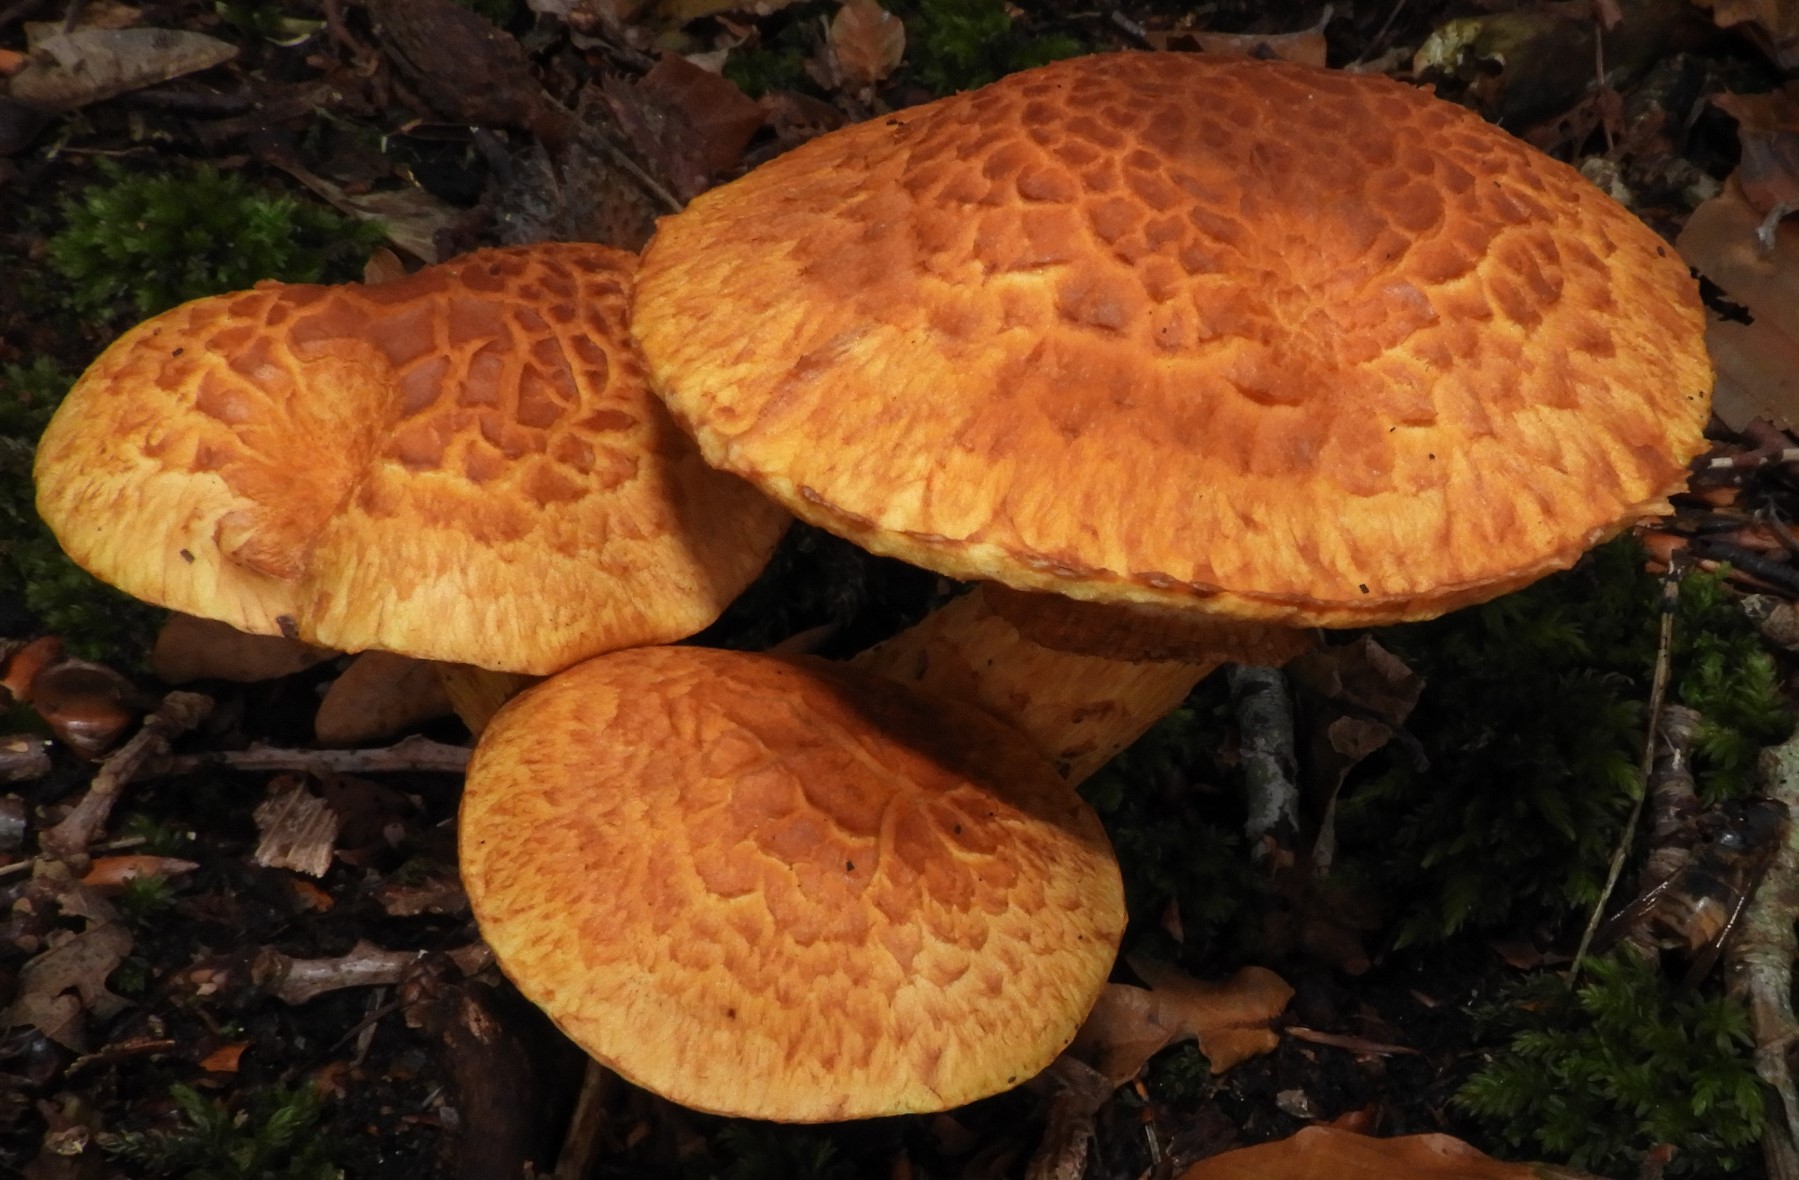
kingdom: Fungi
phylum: Basidiomycota
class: Agaricomycetes
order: Agaricales
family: Hymenogastraceae
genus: Gymnopilus
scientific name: Gymnopilus spectabilis
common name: fibret flammehat
